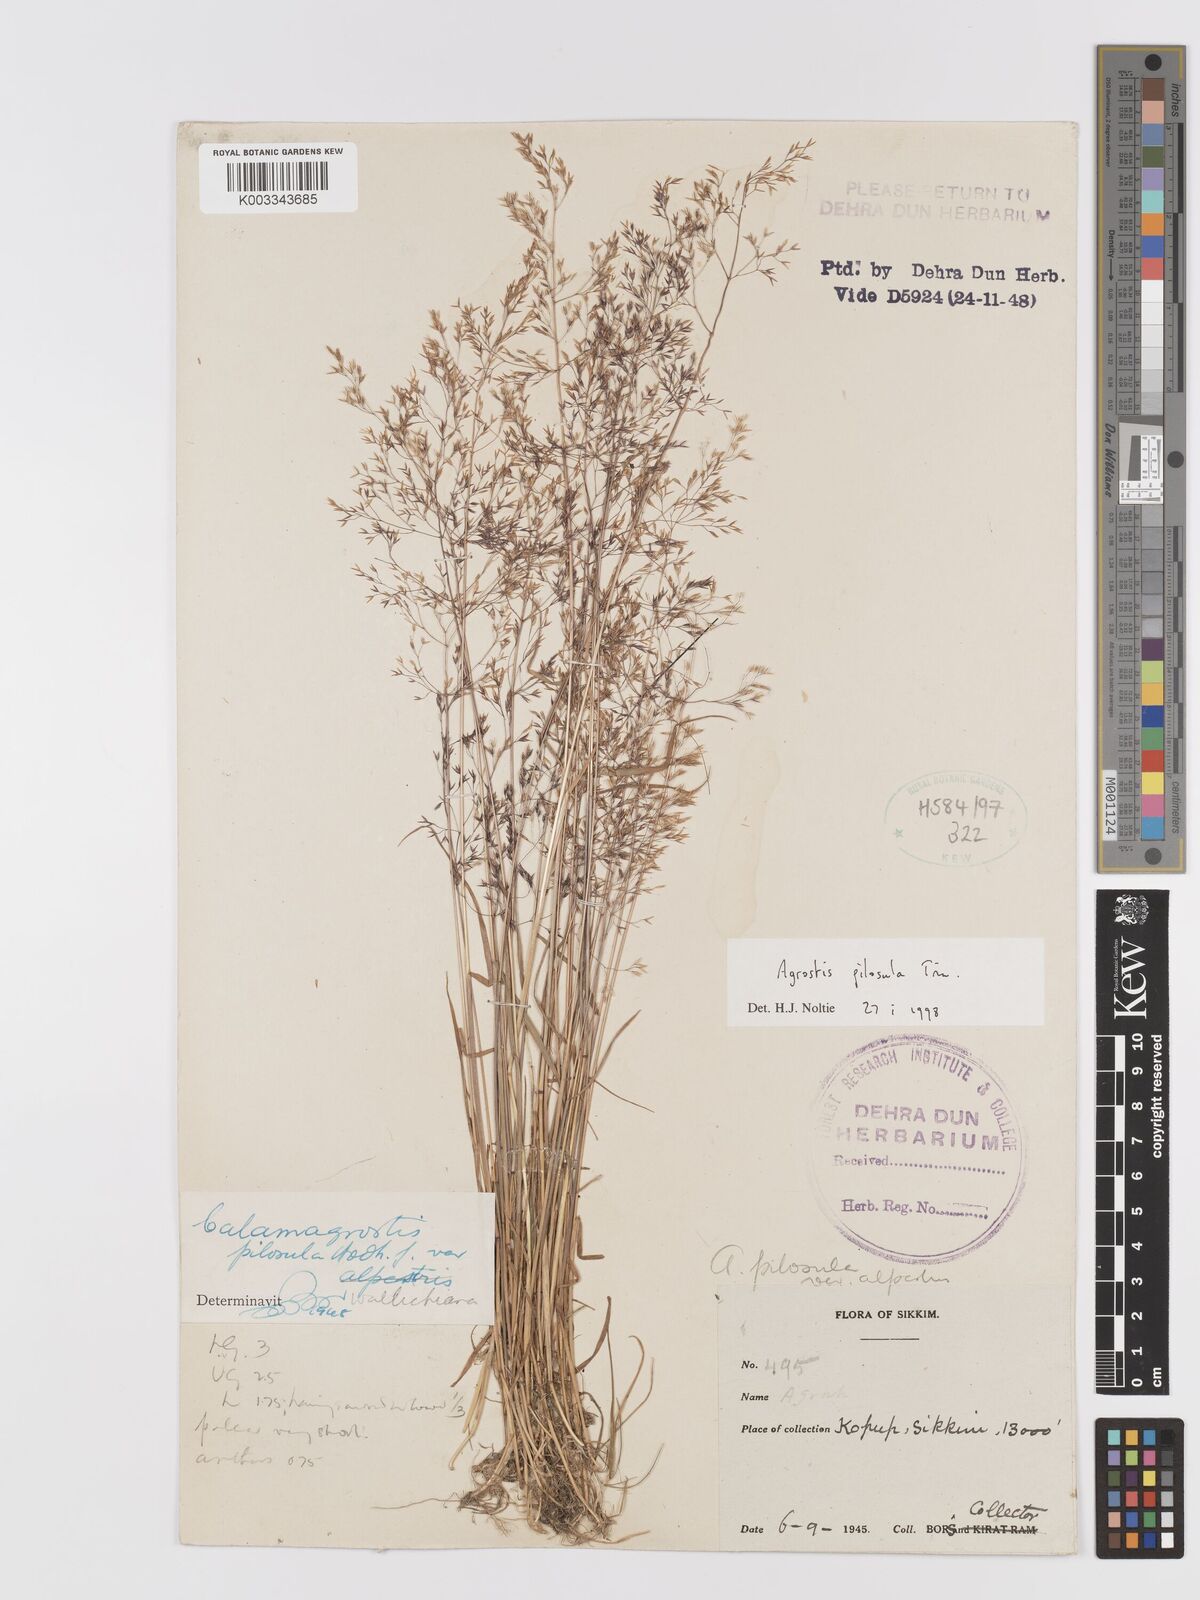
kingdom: Plantae
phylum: Tracheophyta
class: Liliopsida
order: Poales
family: Poaceae
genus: Agrostis
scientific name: Agrostis pilosula
